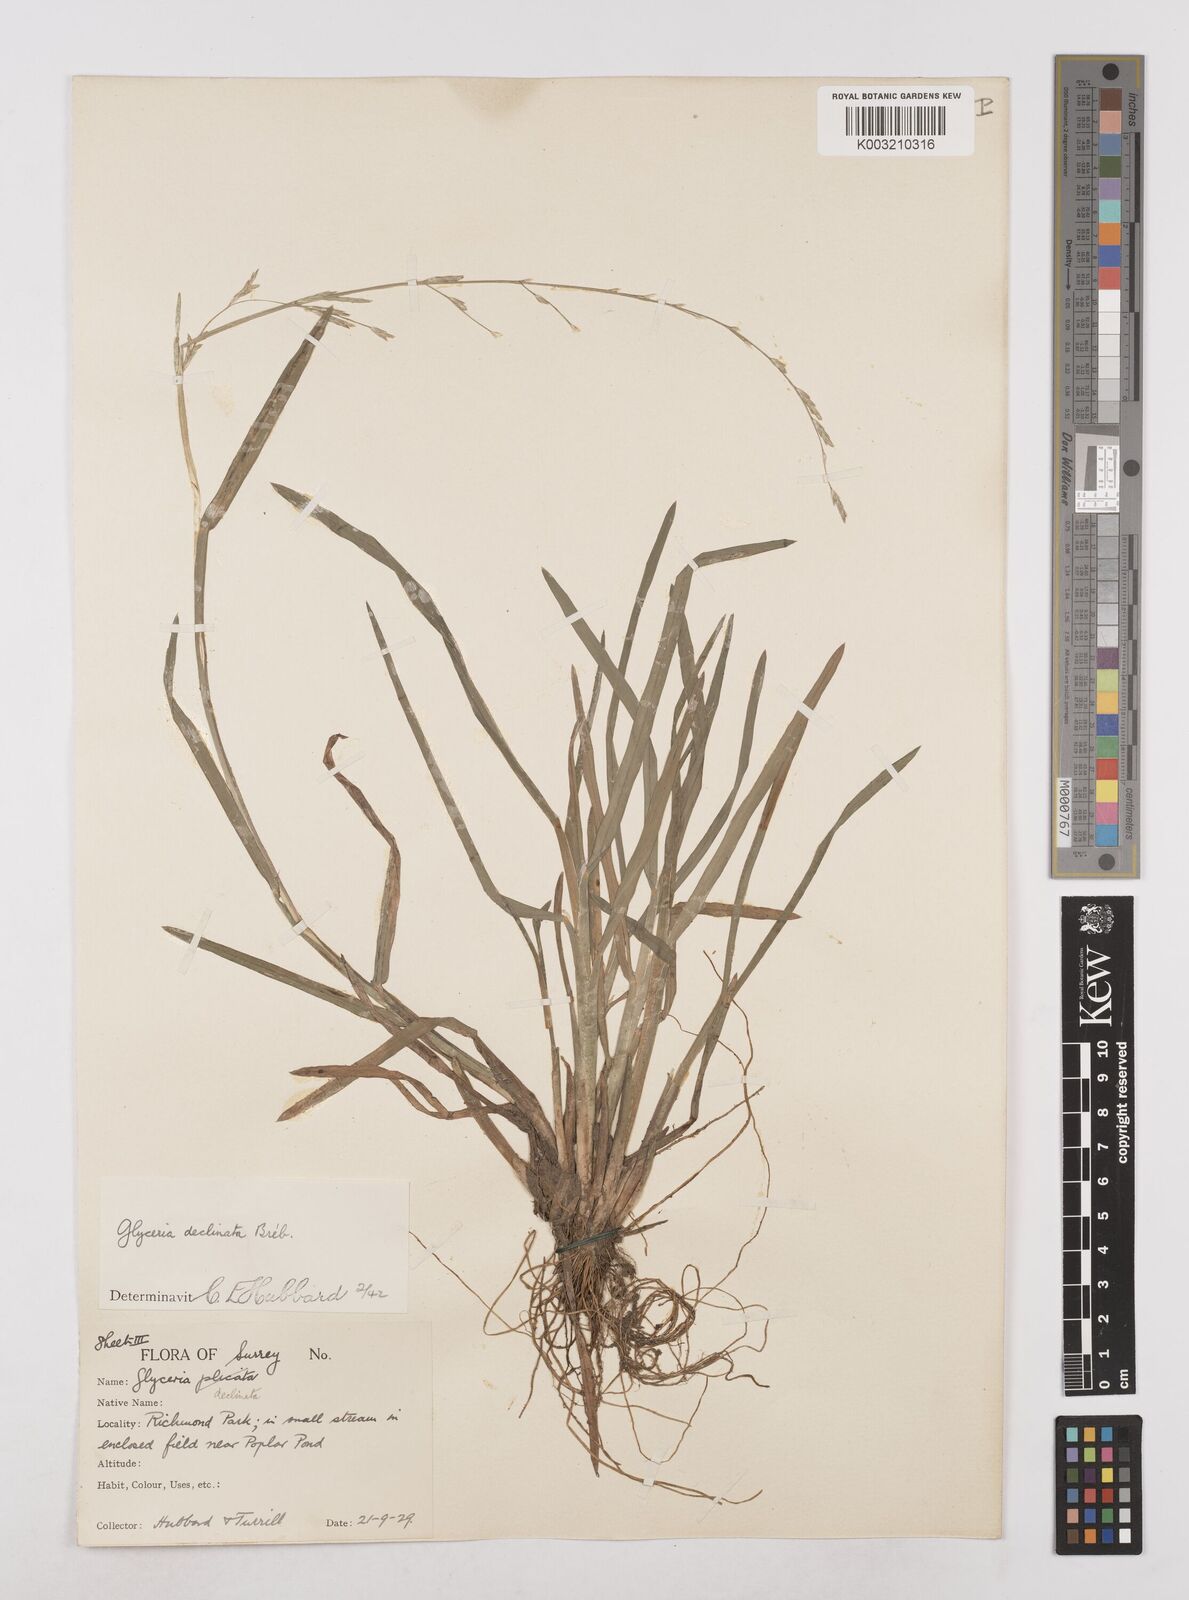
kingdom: Plantae
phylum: Tracheophyta
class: Liliopsida
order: Poales
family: Poaceae
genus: Glyceria
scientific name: Glyceria declinata
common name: Small sweet-grass
